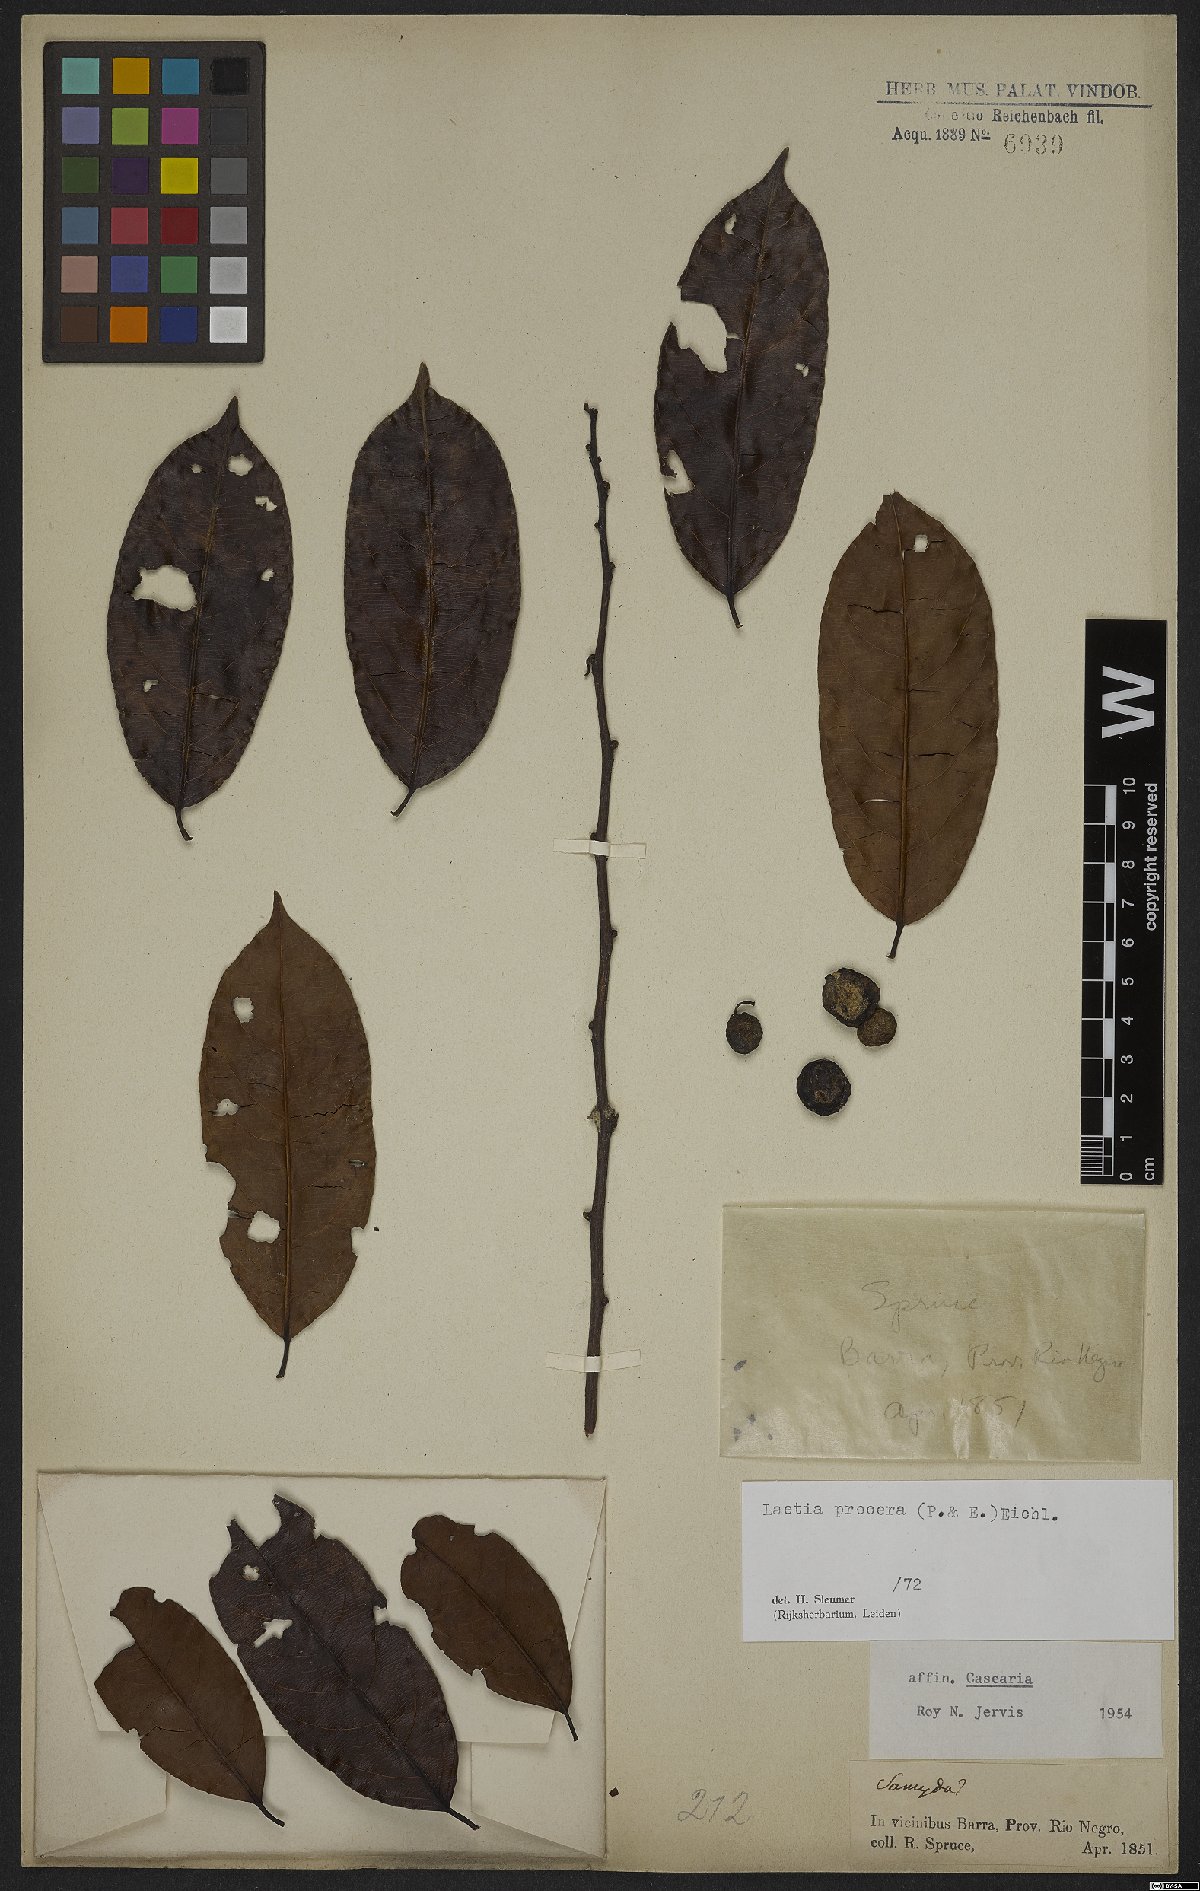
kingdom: Plantae
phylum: Tracheophyta
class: Magnoliopsida
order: Malpighiales
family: Salicaceae
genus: Casearia
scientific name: Casearia bicolor
